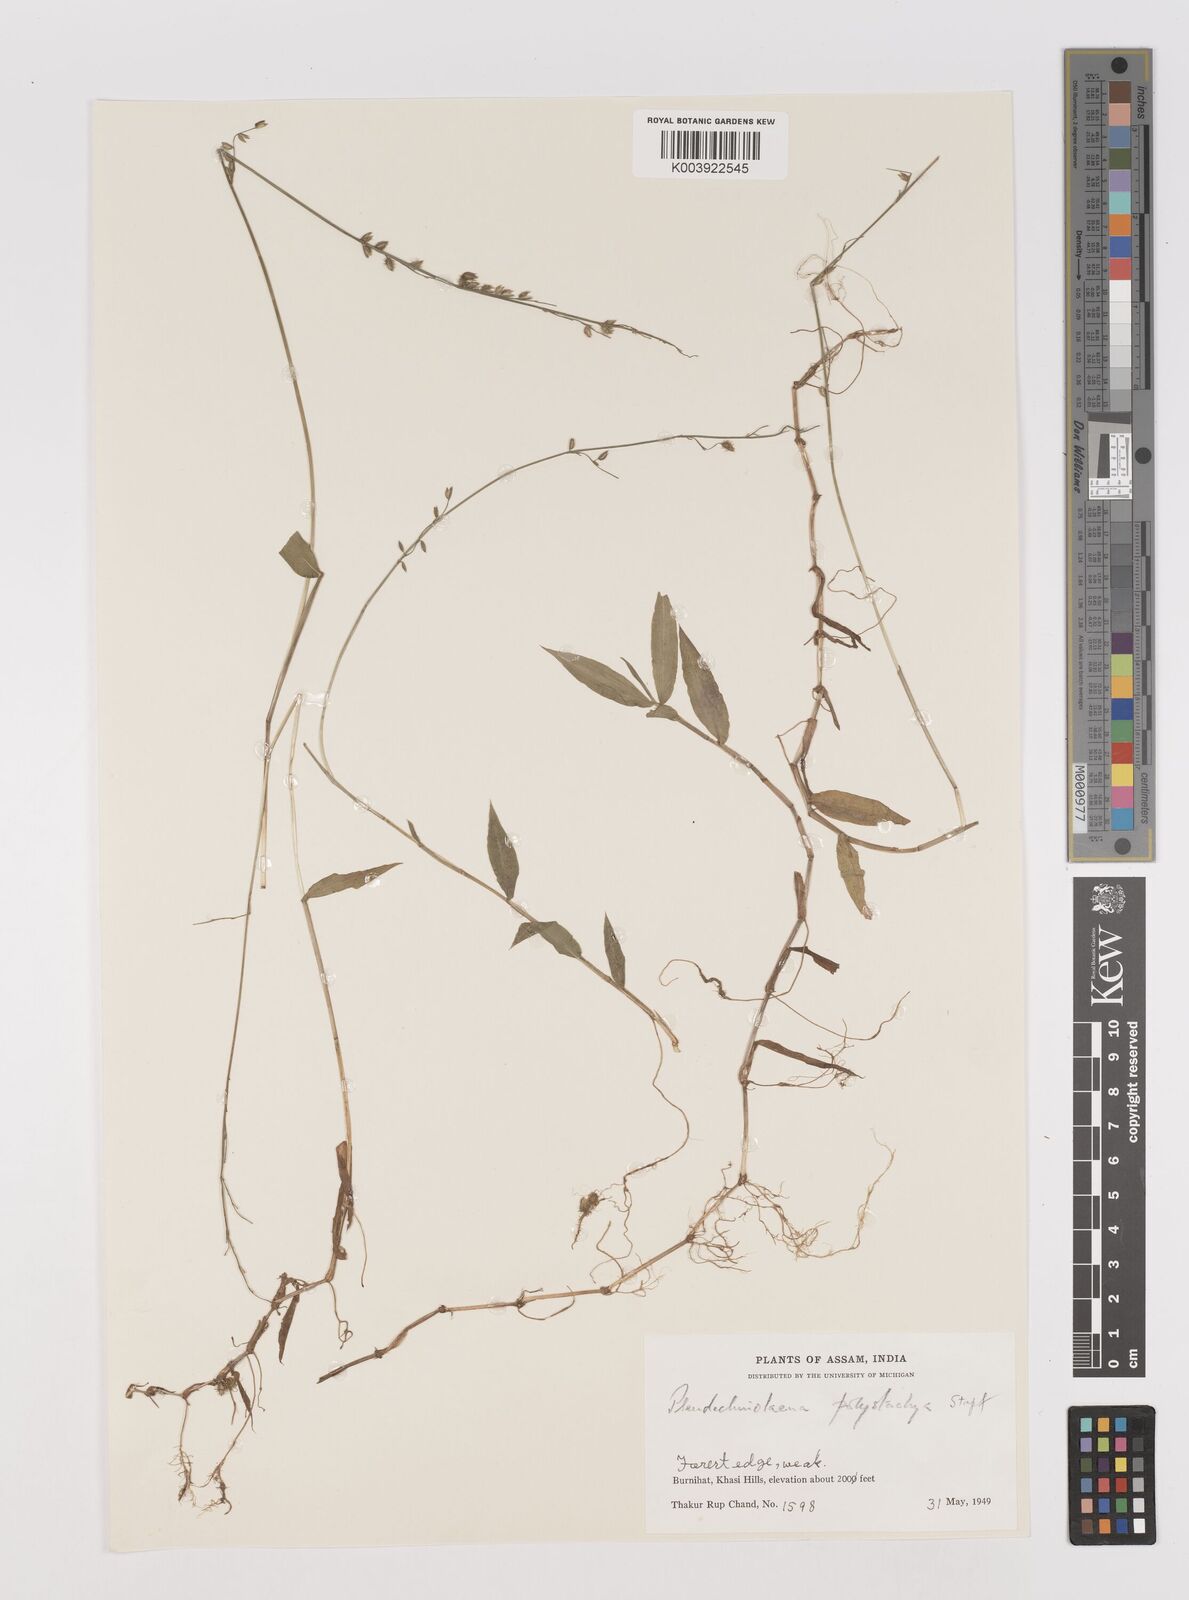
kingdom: Plantae
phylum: Tracheophyta
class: Liliopsida
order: Poales
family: Poaceae
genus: Pseudechinolaena
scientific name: Pseudechinolaena polystachya
